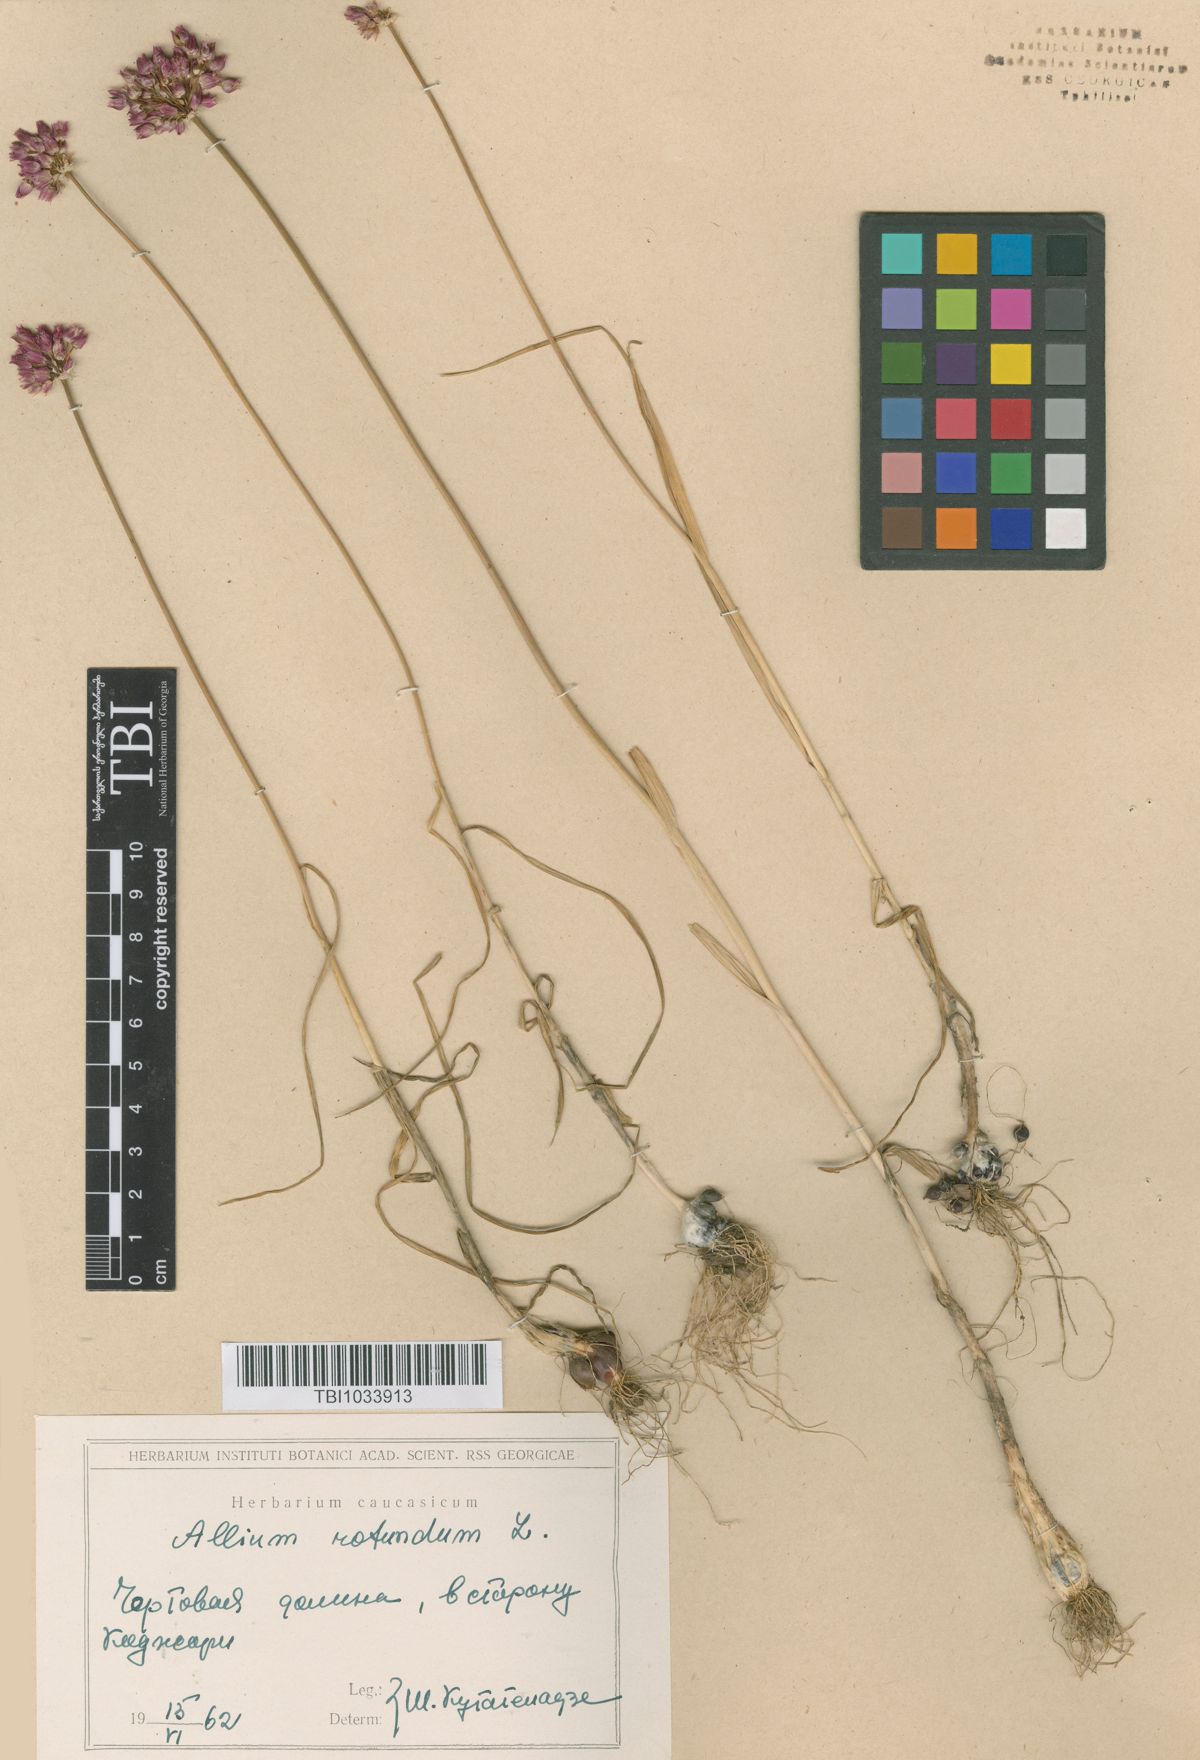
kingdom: Plantae
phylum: Tracheophyta
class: Liliopsida
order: Asparagales
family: Amaryllidaceae
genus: Allium
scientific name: Allium rotundum
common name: Sand leek
